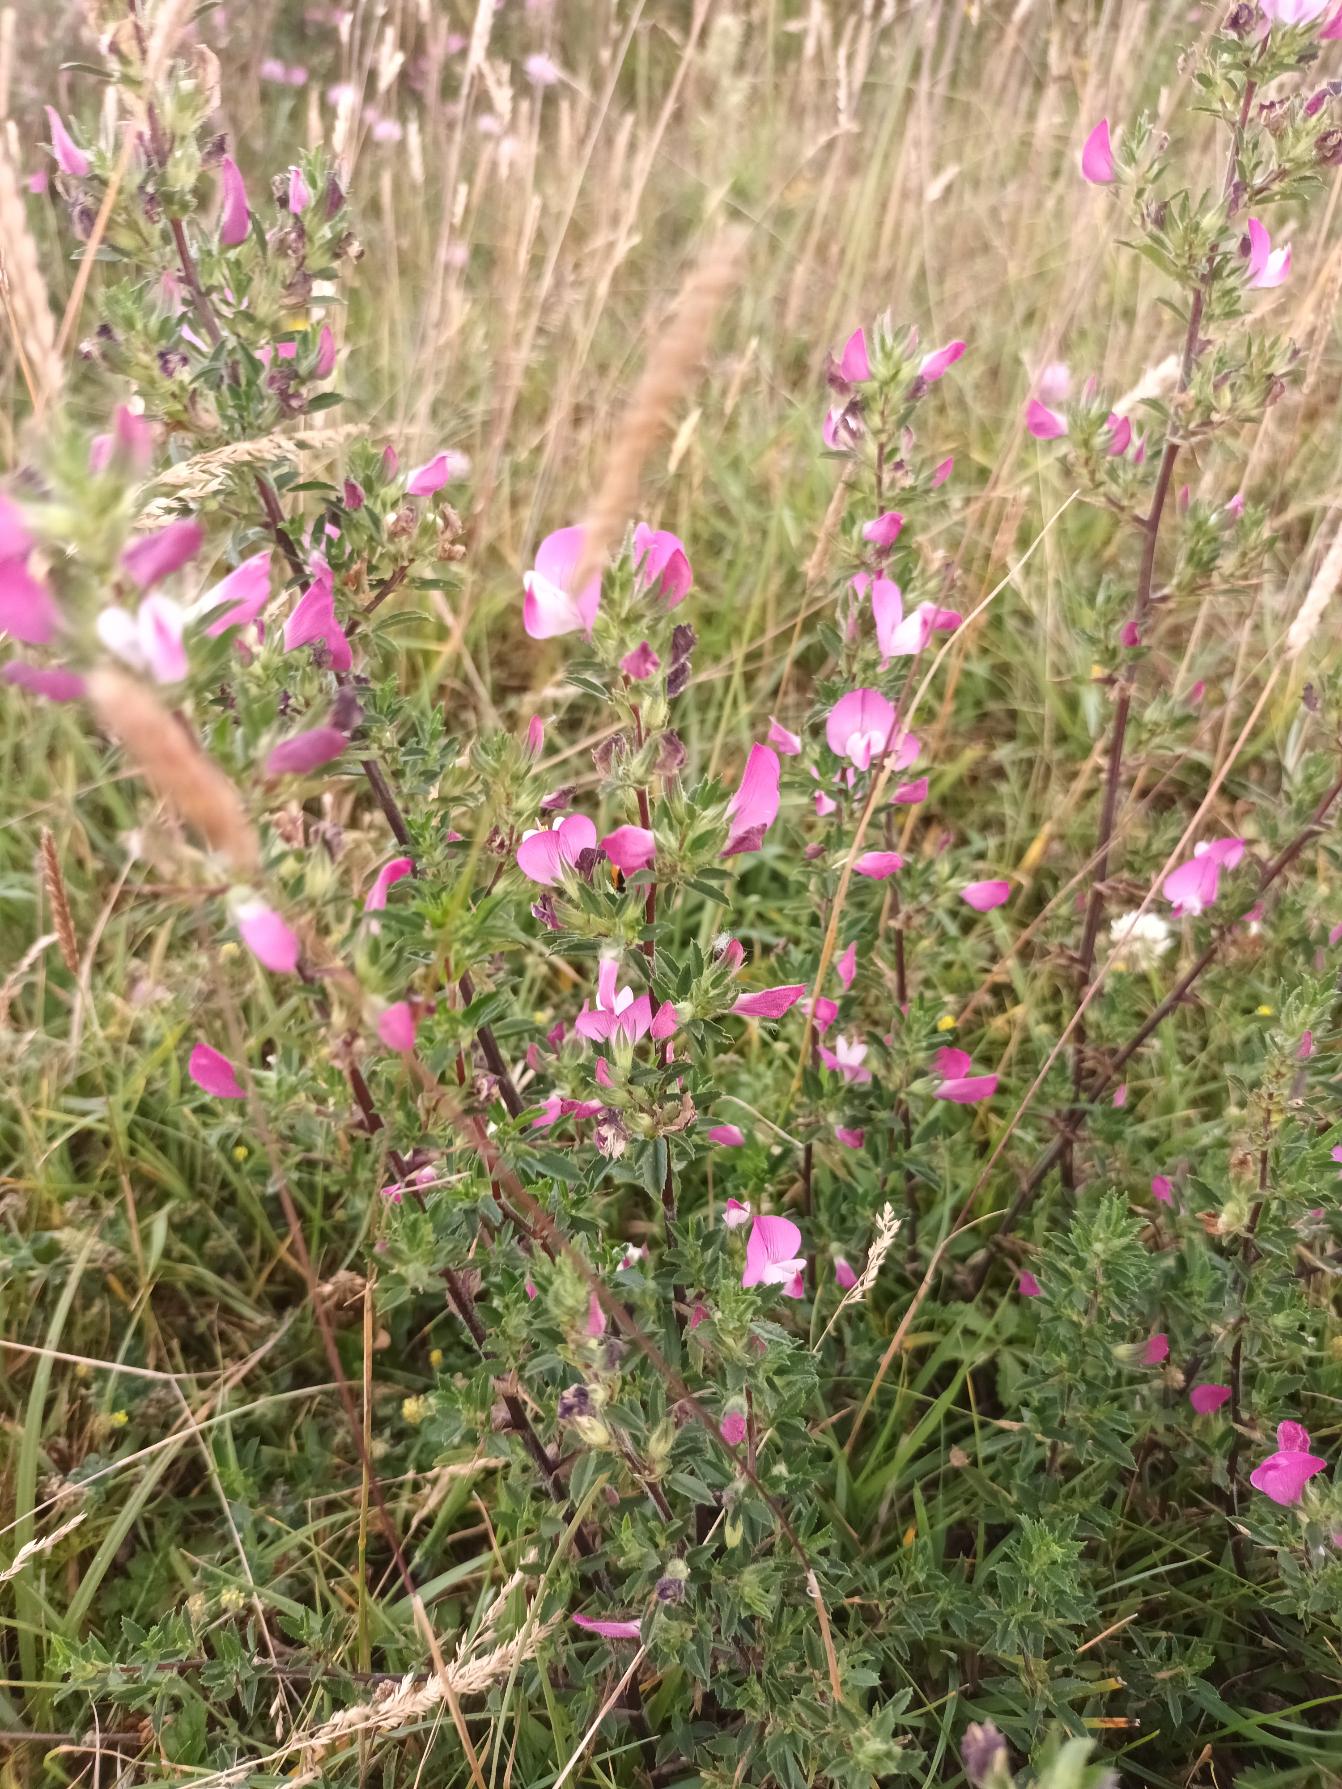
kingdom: Plantae
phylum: Tracheophyta
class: Magnoliopsida
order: Fabales
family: Fabaceae
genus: Ononis
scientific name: Ononis spinosa
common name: Strand-krageklo
